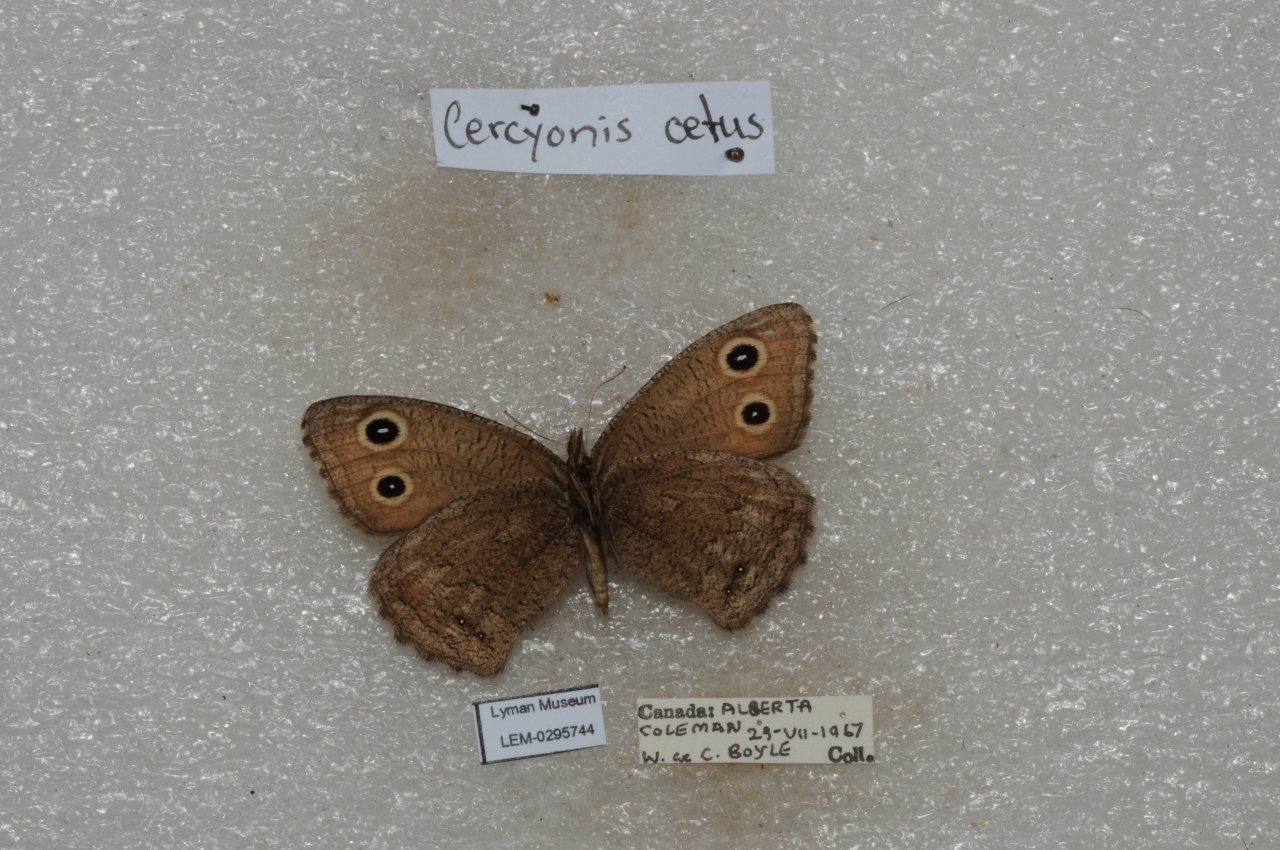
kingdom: Animalia
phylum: Arthropoda
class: Insecta
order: Lepidoptera
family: Nymphalidae
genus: Cercyonis
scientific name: Cercyonis oetus
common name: Small Wood-Nymph
